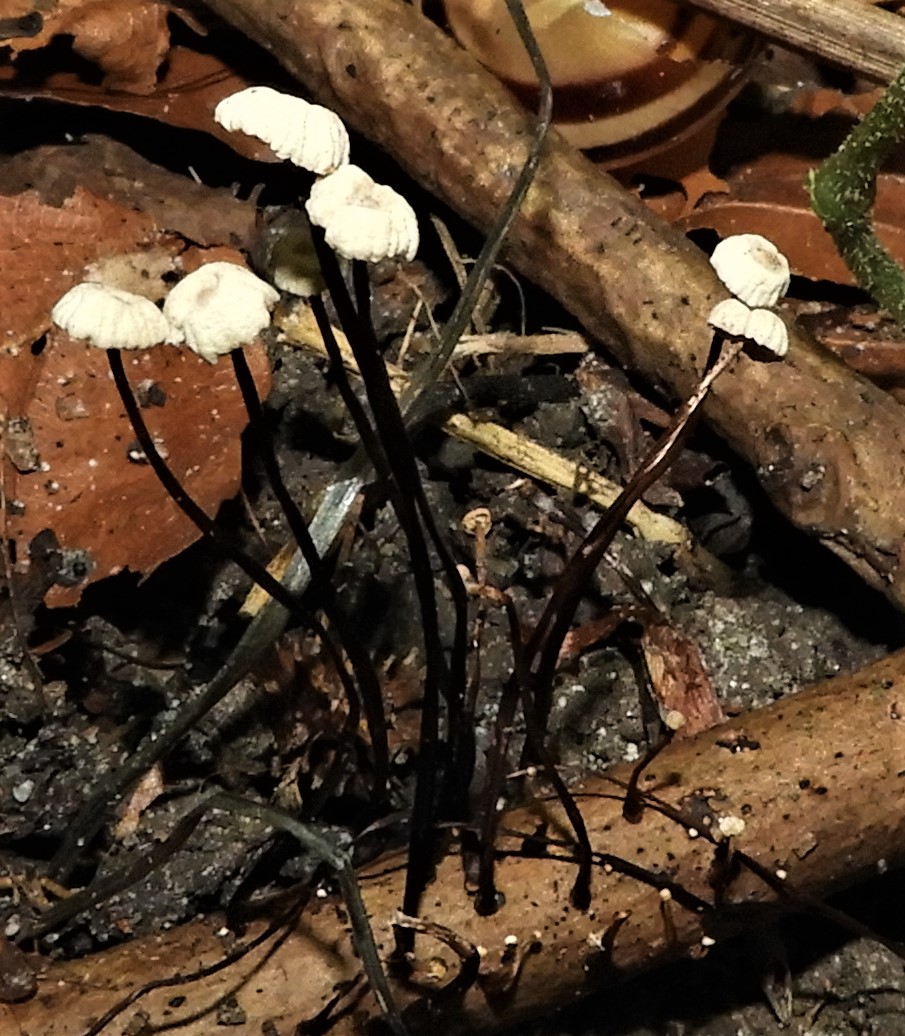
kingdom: Fungi
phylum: Basidiomycota
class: Agaricomycetes
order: Agaricales
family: Marasmiaceae
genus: Marasmius
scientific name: Marasmius rotula
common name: hjul-bruskhat
